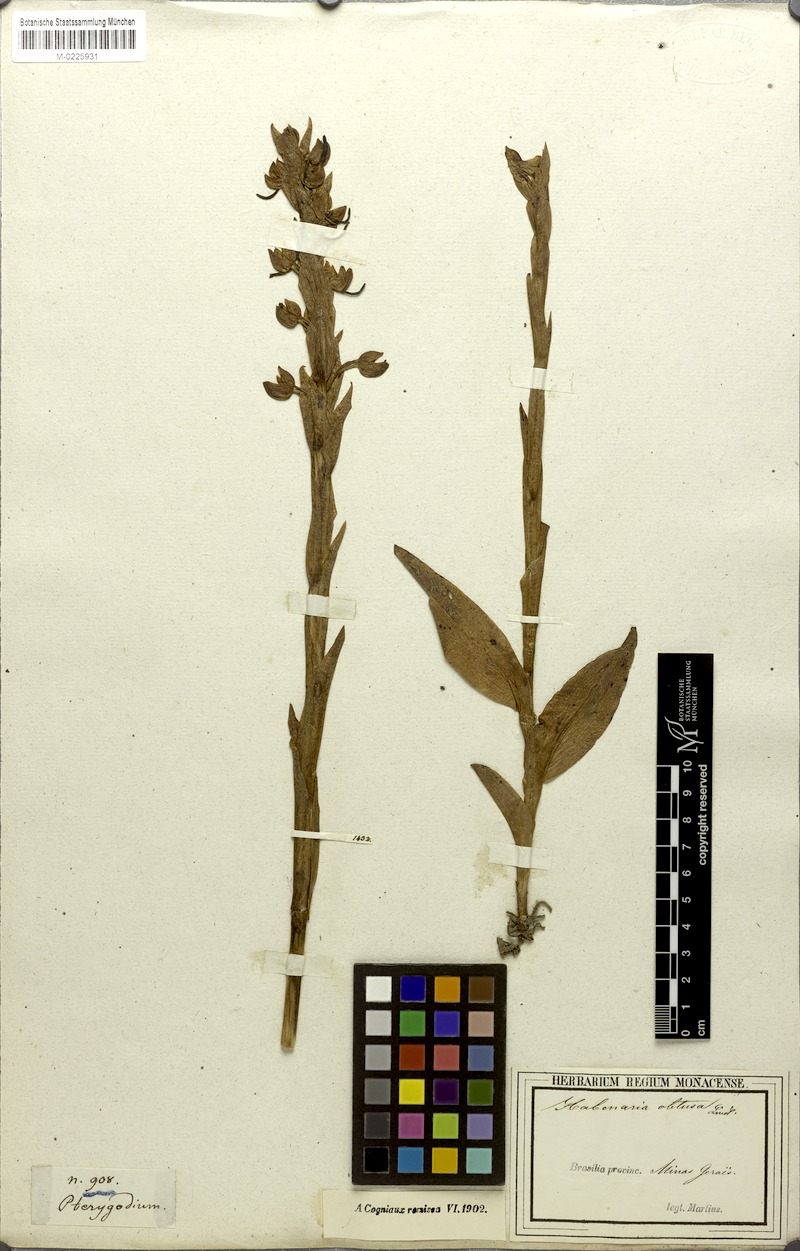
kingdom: Plantae
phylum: Tracheophyta
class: Liliopsida
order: Asparagales
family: Orchidaceae
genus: Habenaria
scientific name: Habenaria obtusa
